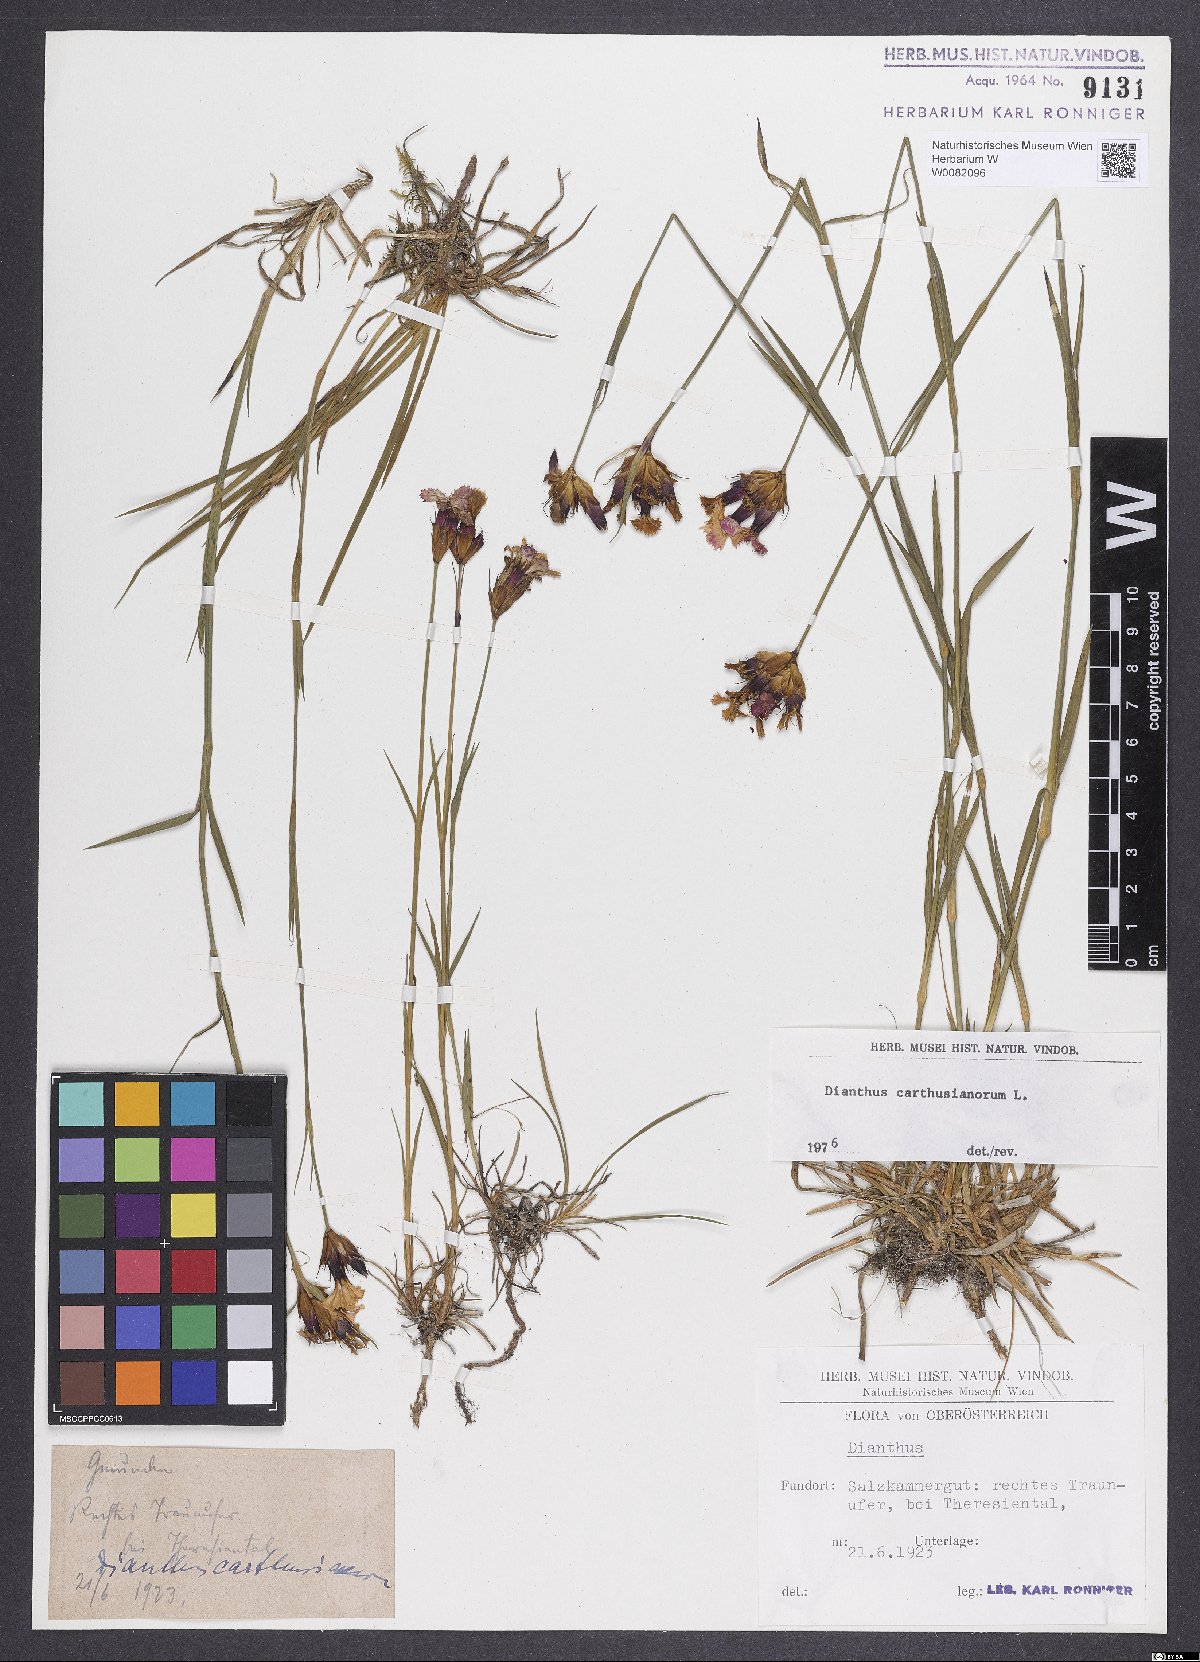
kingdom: Plantae
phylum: Tracheophyta
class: Magnoliopsida
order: Caryophyllales
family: Caryophyllaceae
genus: Dianthus
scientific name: Dianthus carthusianorum
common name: Carthusian pink
